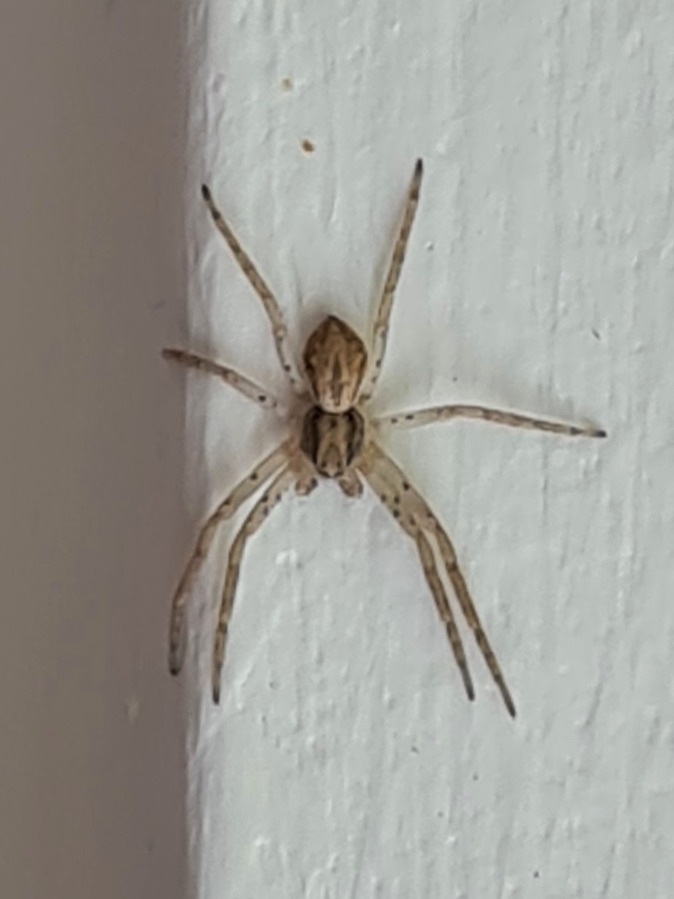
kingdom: Animalia
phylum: Arthropoda
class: Arachnida
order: Araneae
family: Philodromidae
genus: Philodromus
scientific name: Philodromus dispar
